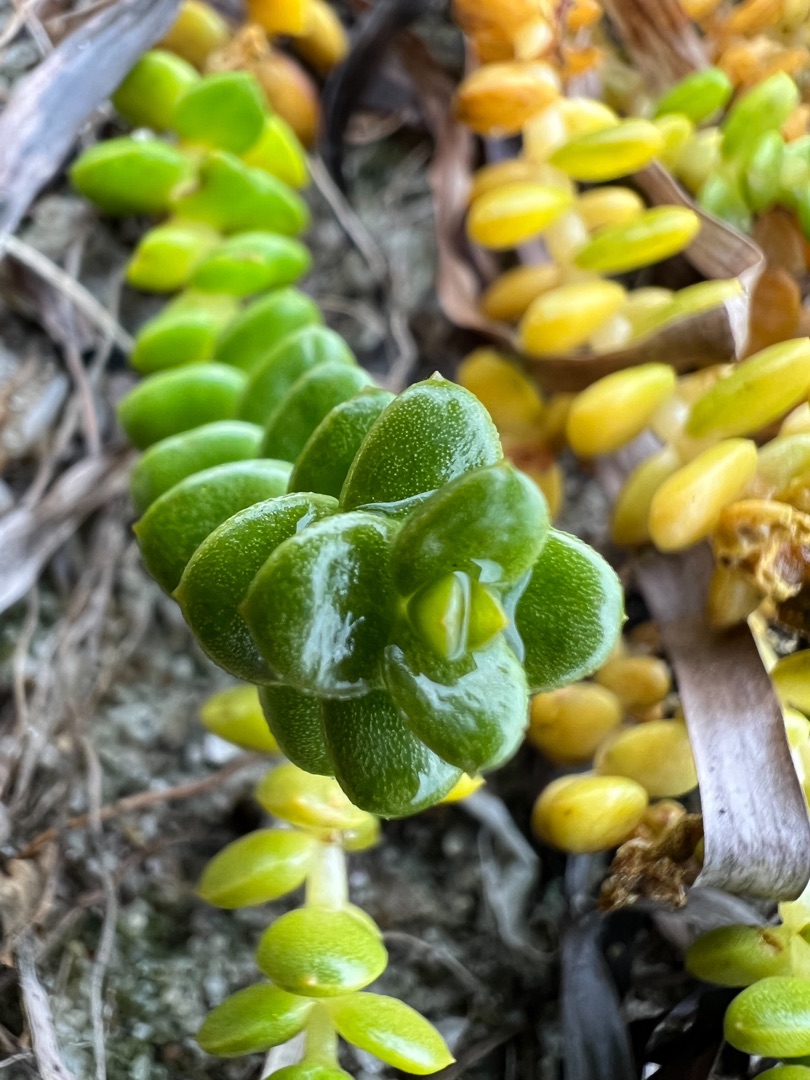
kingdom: Plantae
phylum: Tracheophyta
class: Magnoliopsida
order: Caryophyllales
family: Caryophyllaceae
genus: Honckenya
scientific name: Honckenya peploides
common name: Strandarve
